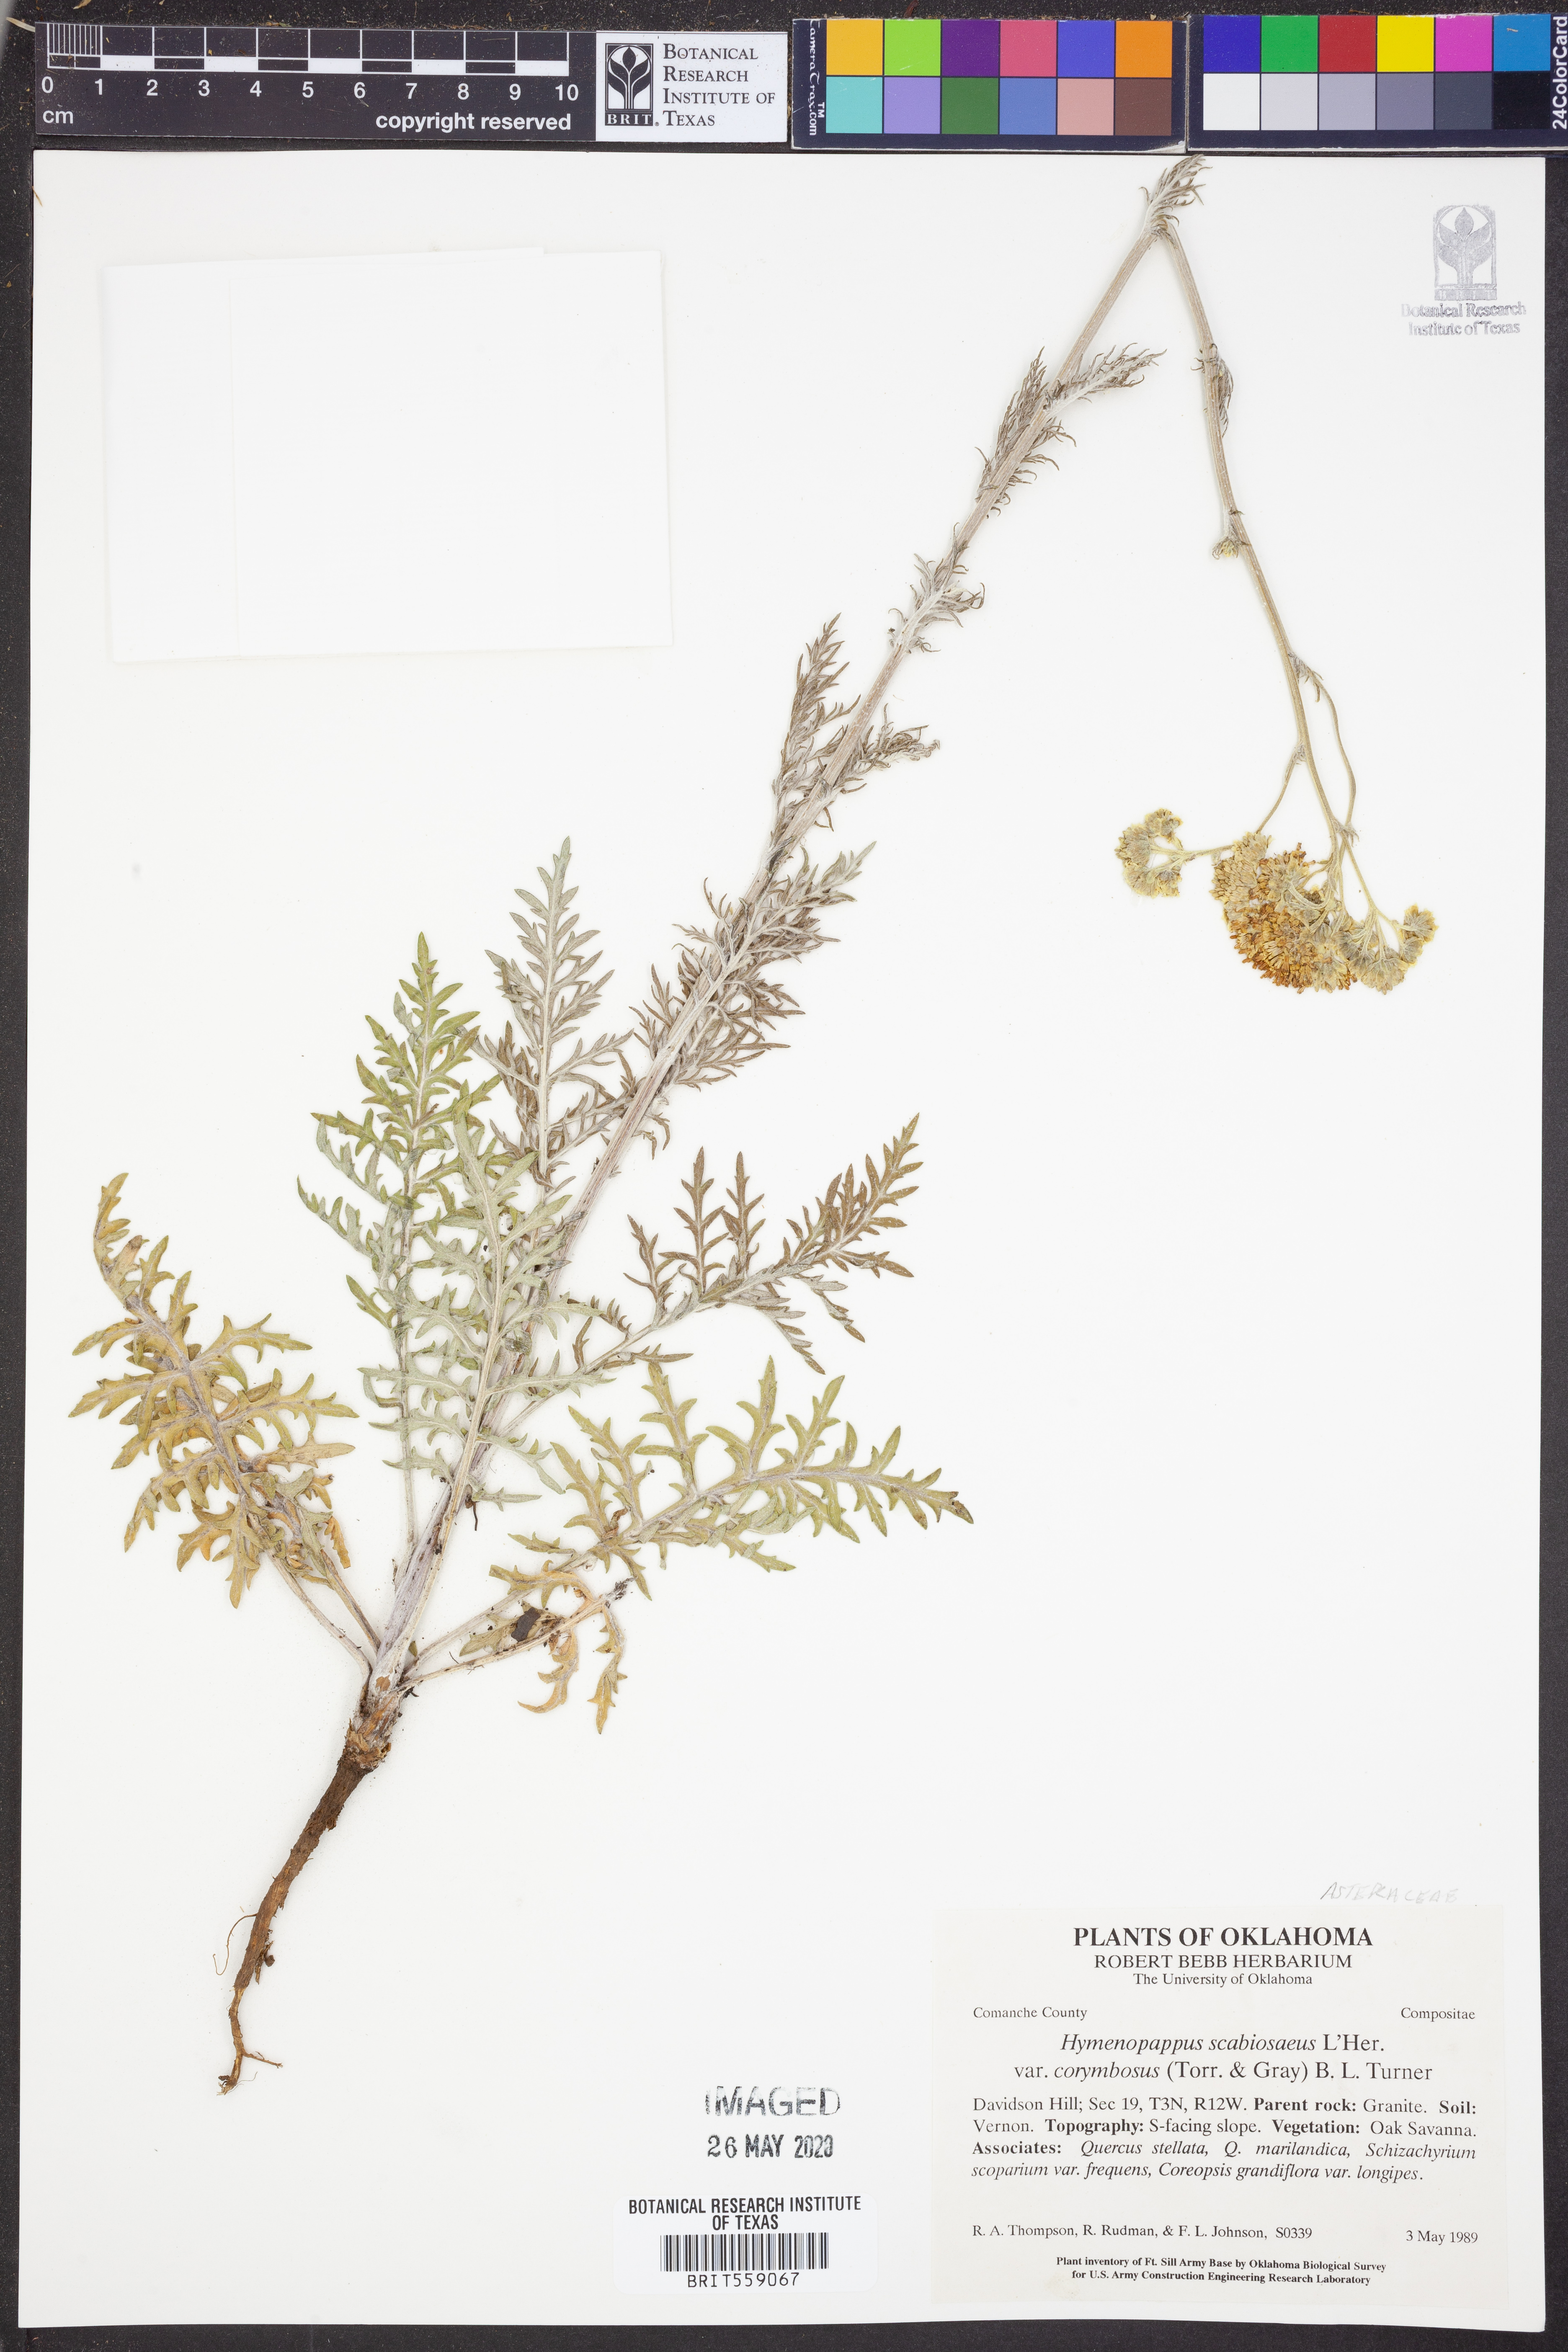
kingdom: Plantae
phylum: Tracheophyta
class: Magnoliopsida
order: Asterales
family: Asteraceae
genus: Hymenopappus
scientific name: Hymenopappus scabiosaeus
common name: Carolina woollywhite
